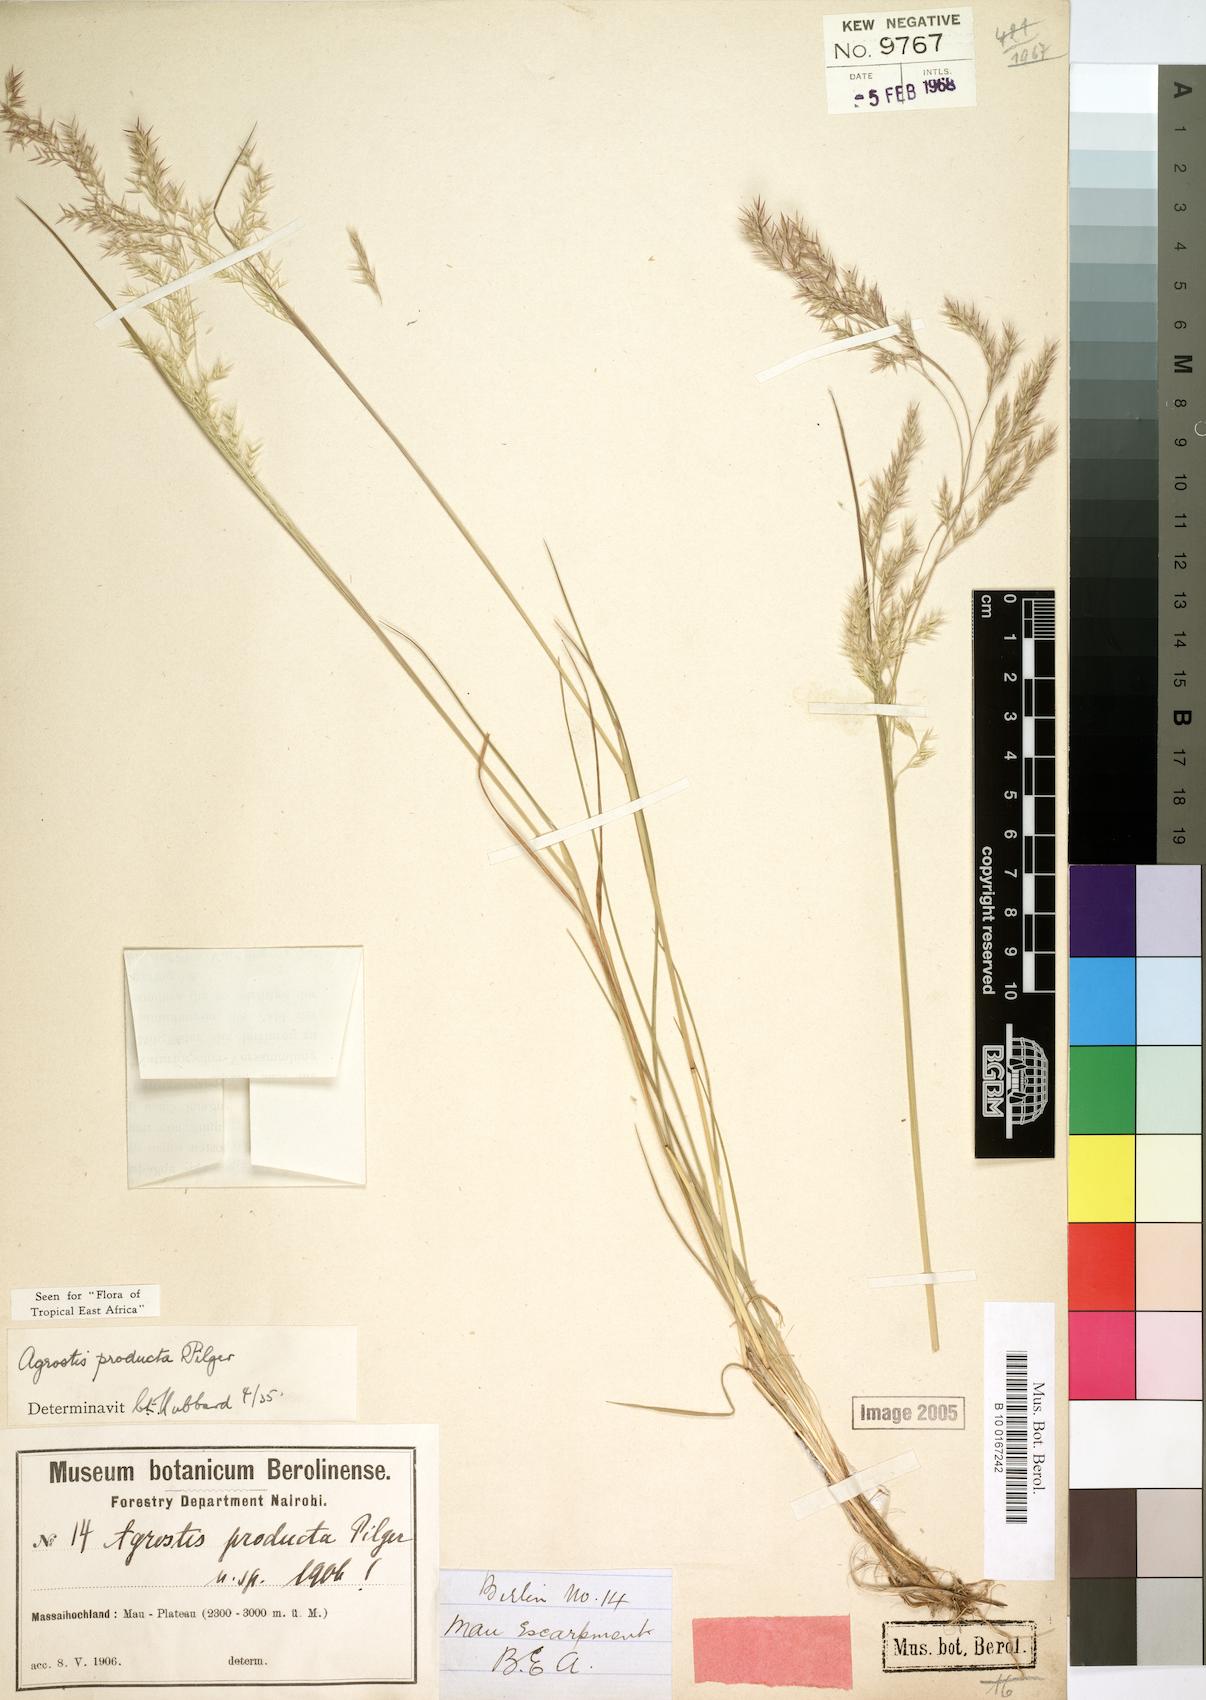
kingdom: Plantae
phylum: Tracheophyta
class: Liliopsida
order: Poales
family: Poaceae
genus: Agrostis
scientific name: Agrostis producta
